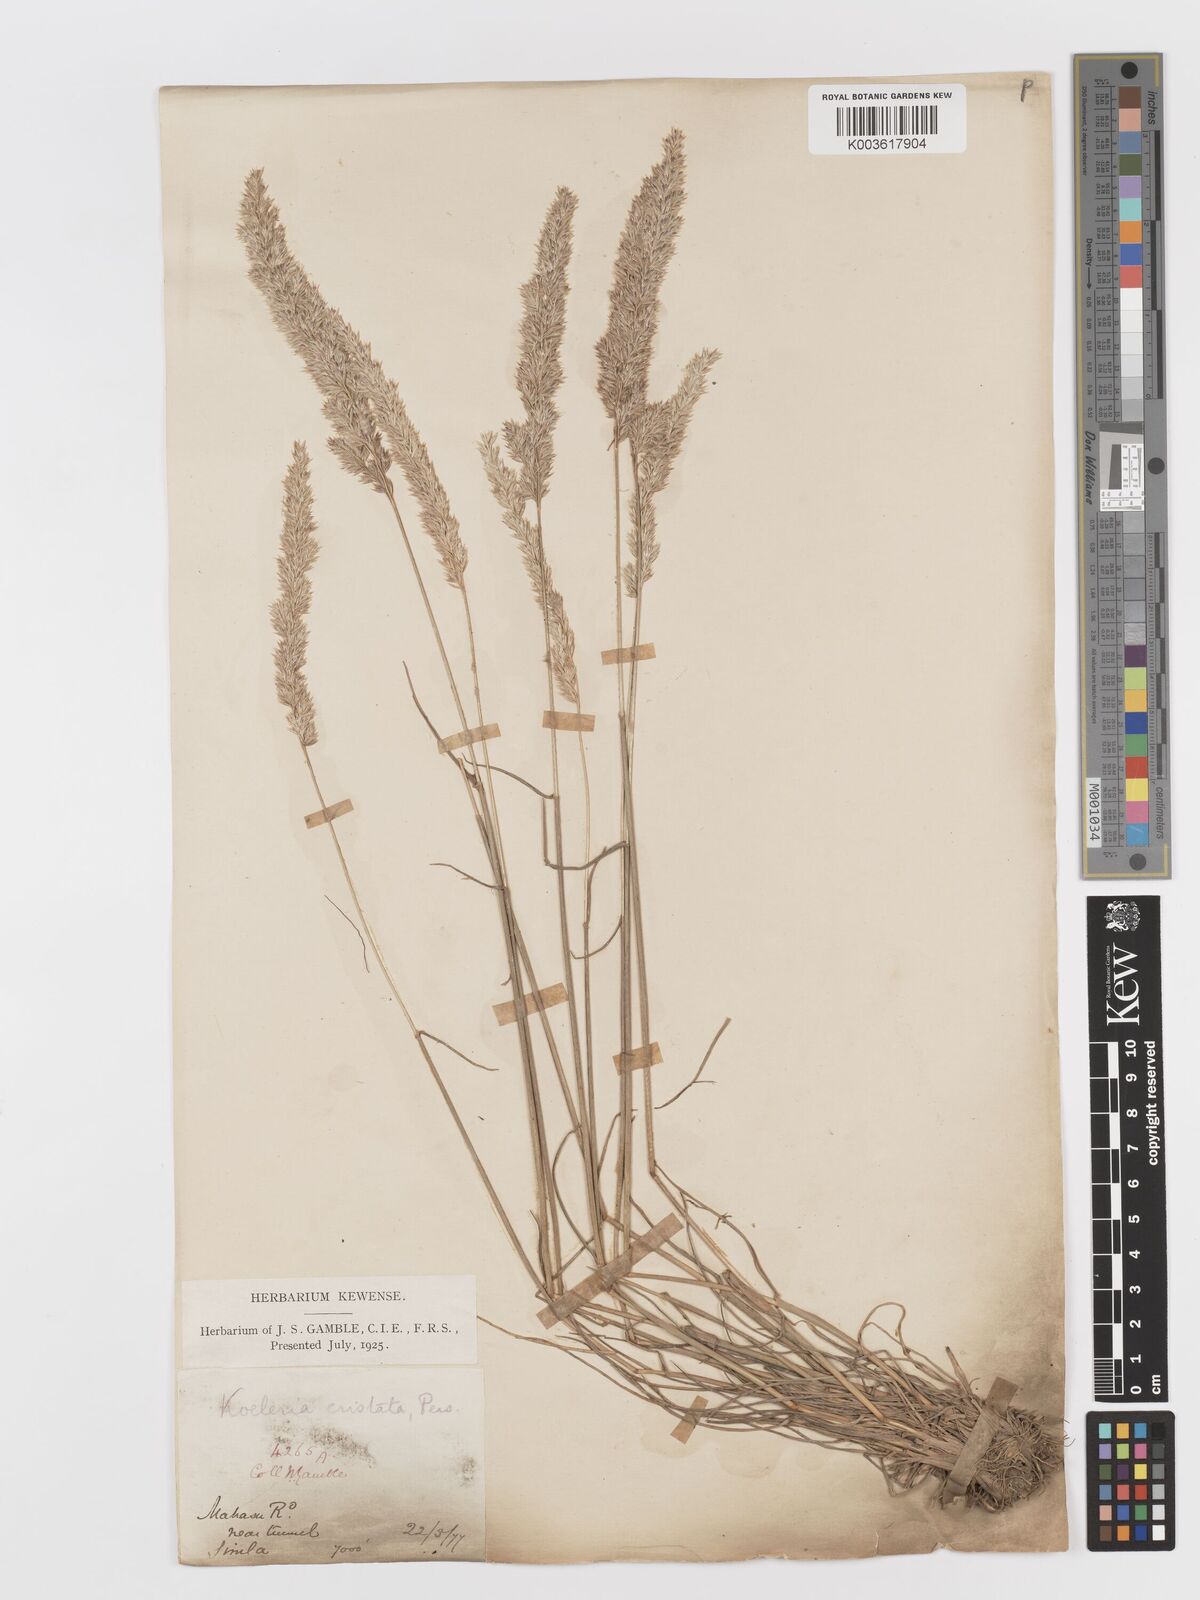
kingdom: Plantae
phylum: Tracheophyta
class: Liliopsida
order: Poales
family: Poaceae
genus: Koeleria
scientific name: Koeleria
